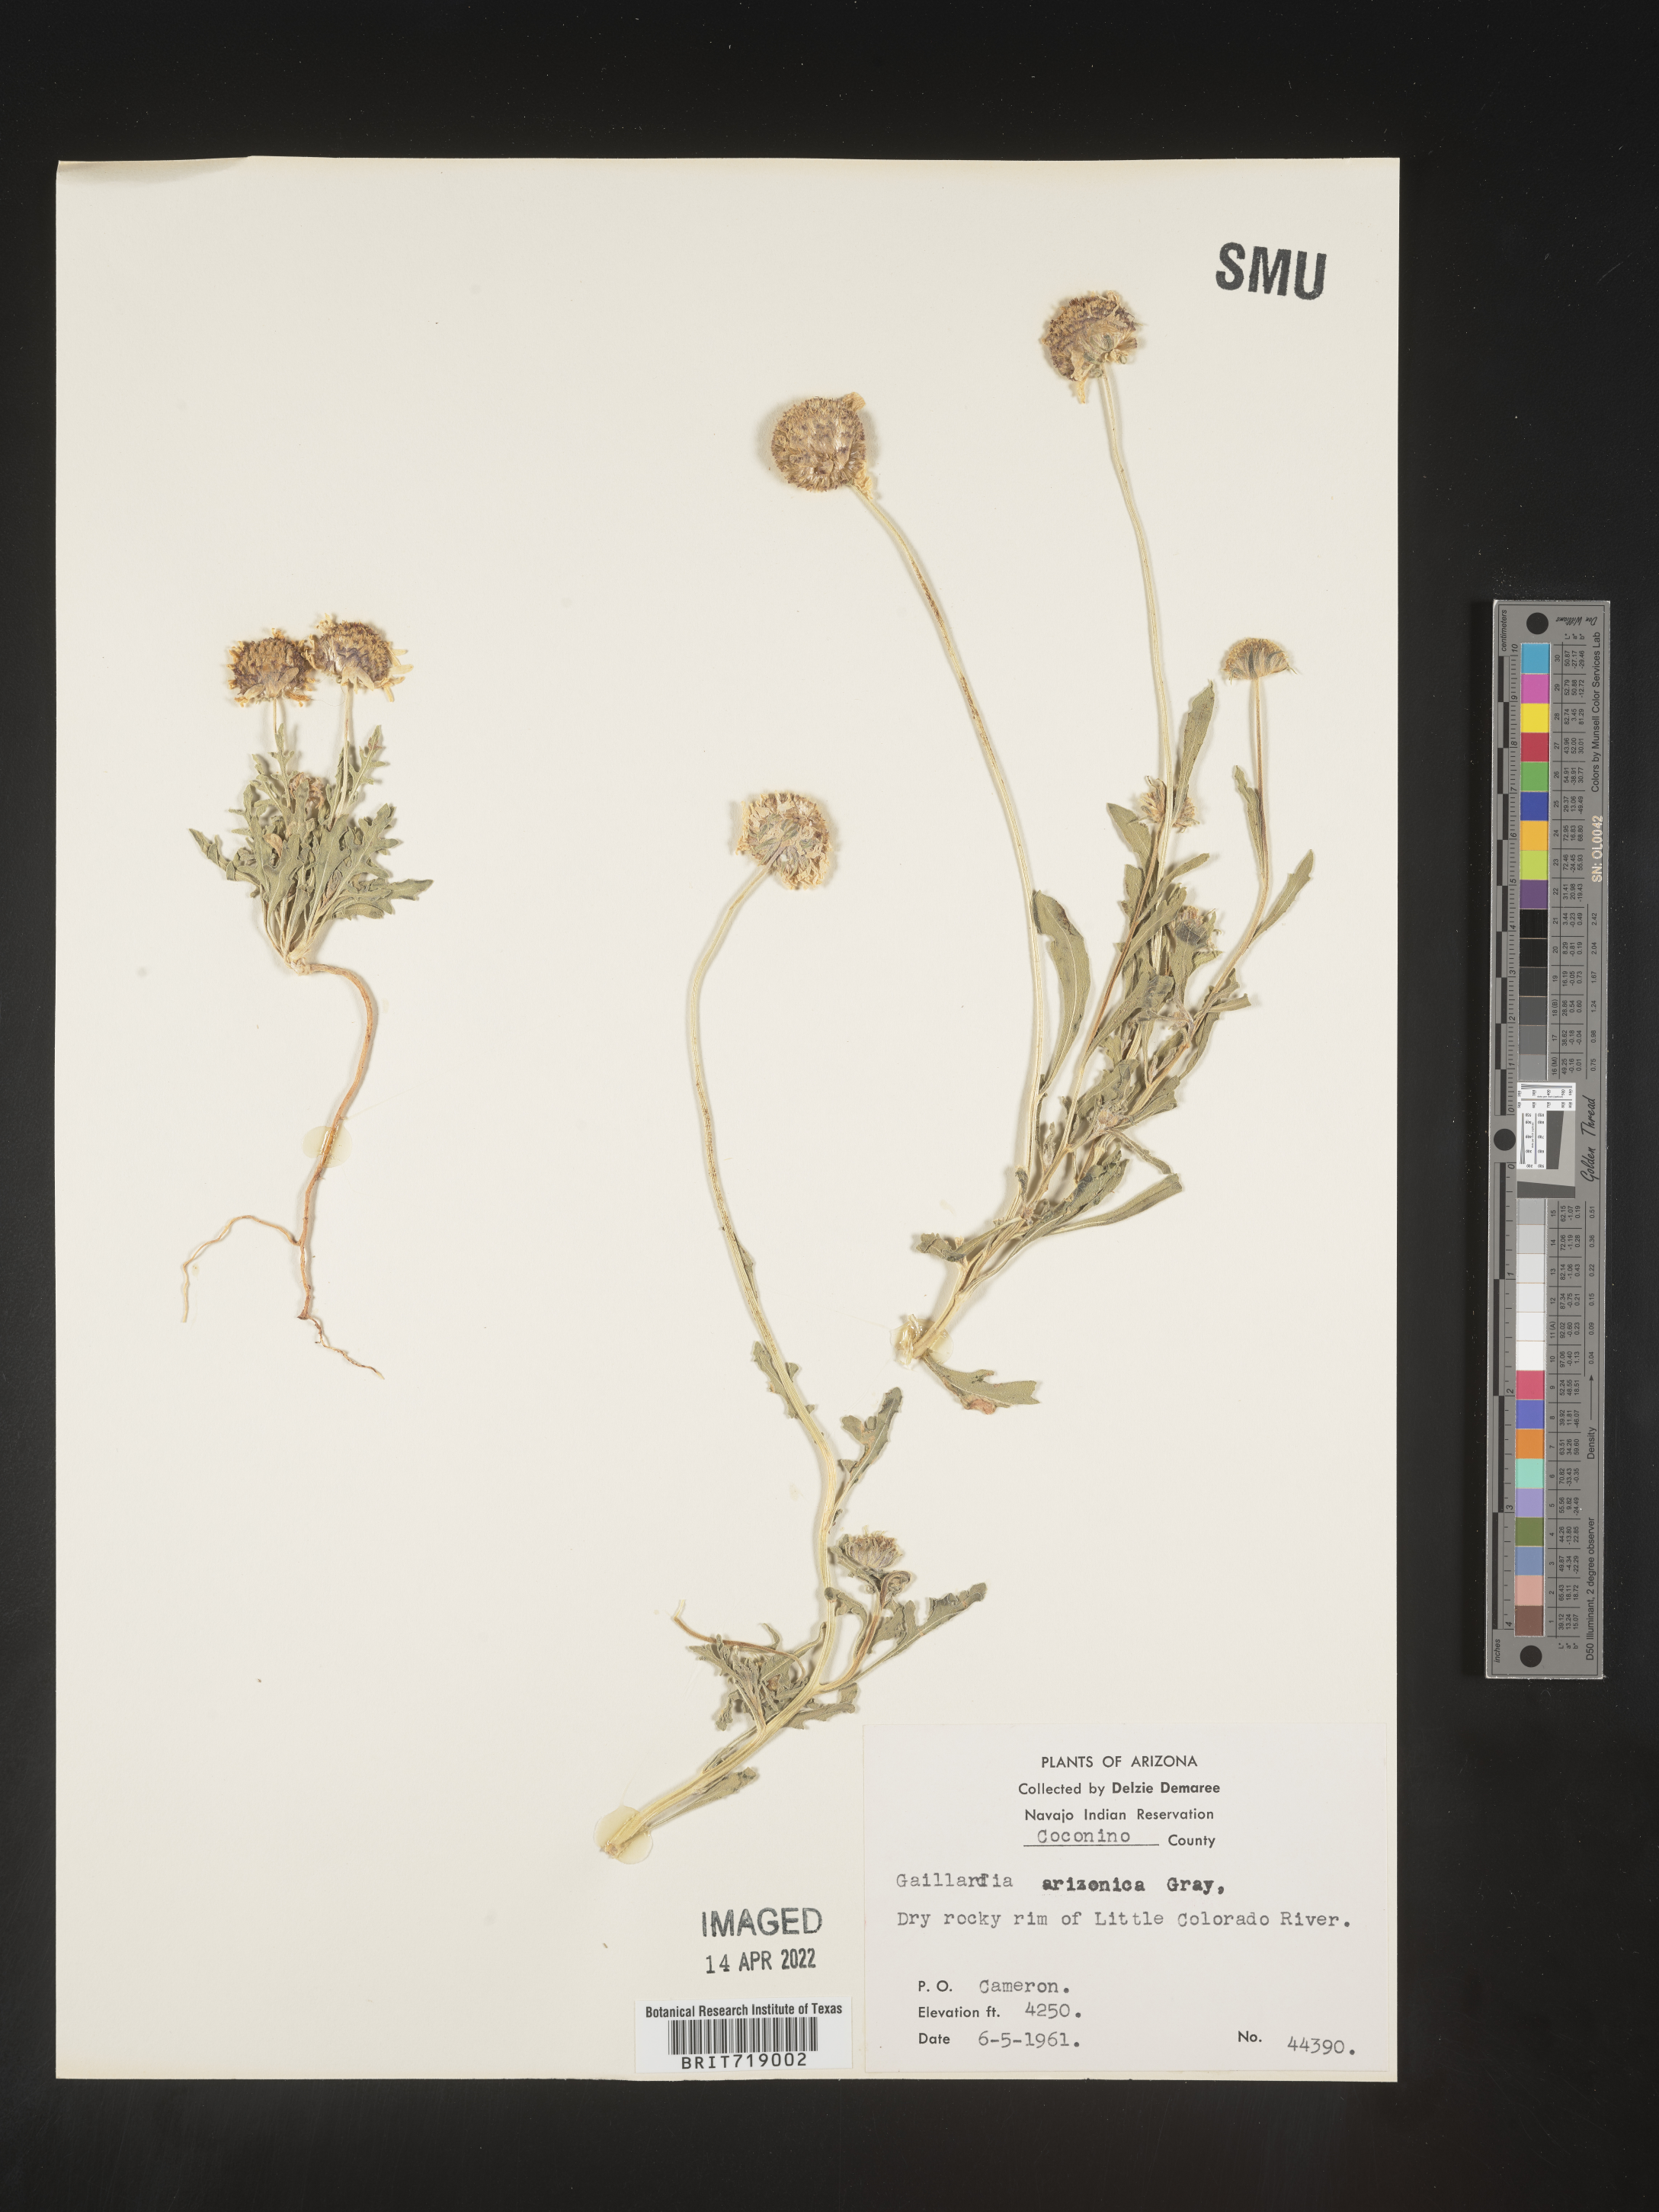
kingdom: Plantae
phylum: Tracheophyta
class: Magnoliopsida
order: Asterales
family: Asteraceae
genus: Gaillardia
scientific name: Gaillardia arizonica
